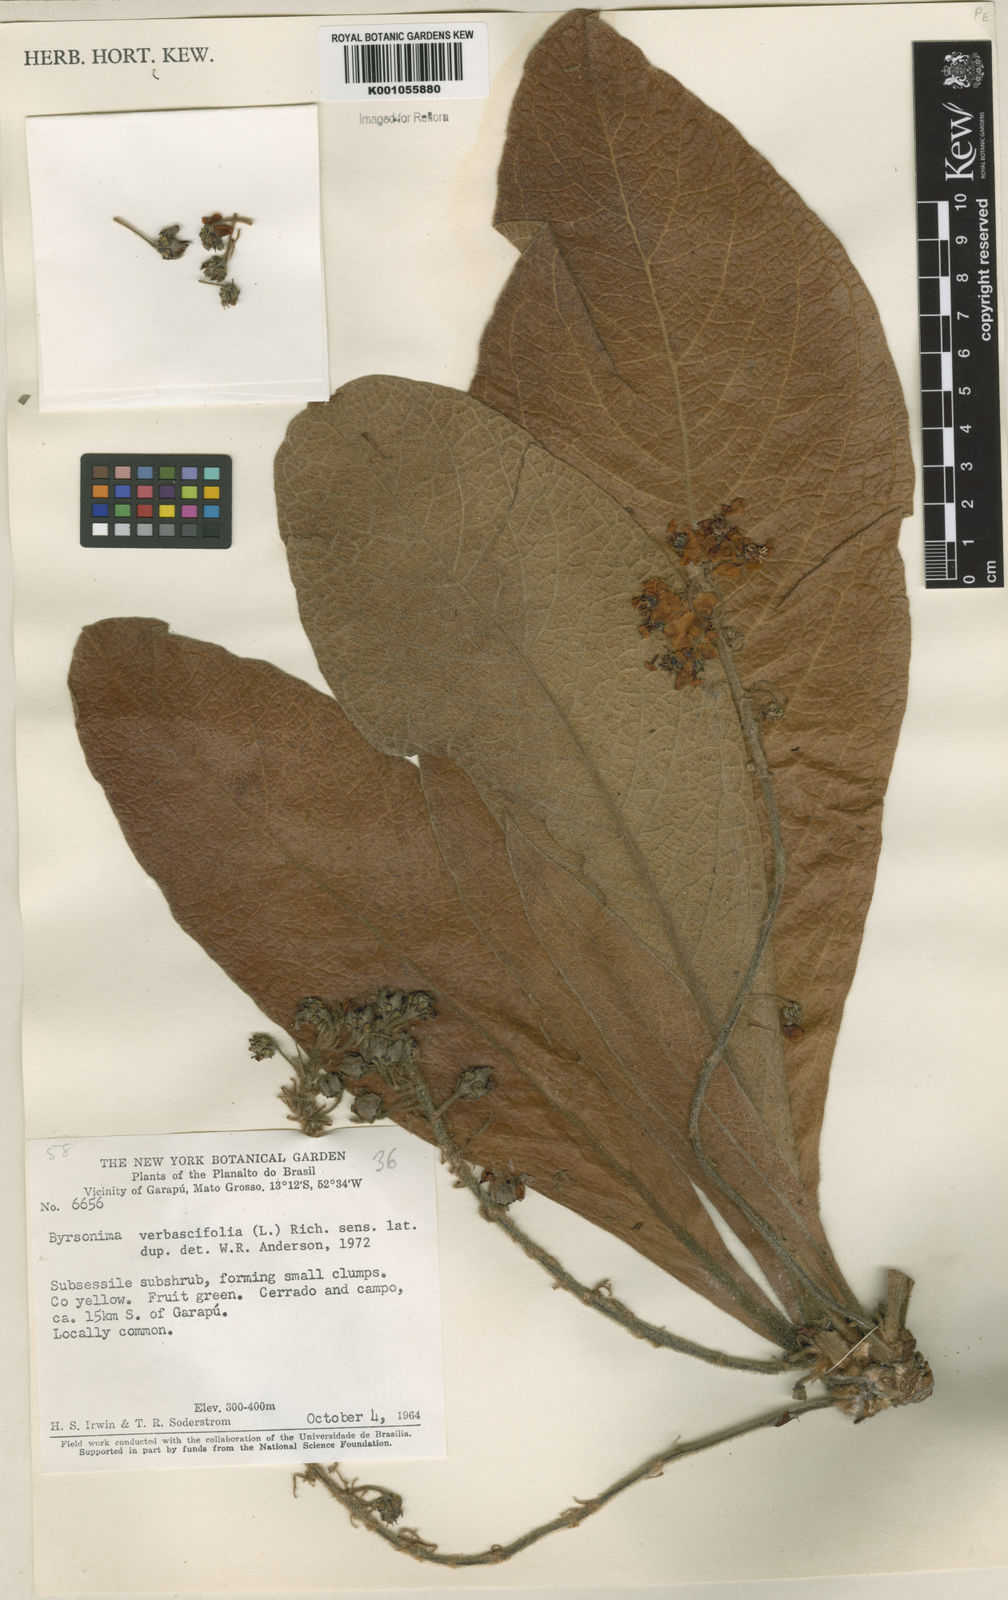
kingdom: Plantae
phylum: Tracheophyta
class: Magnoliopsida
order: Malpighiales
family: Malpighiaceae
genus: Byrsonima
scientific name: Byrsonima verbascifolia
